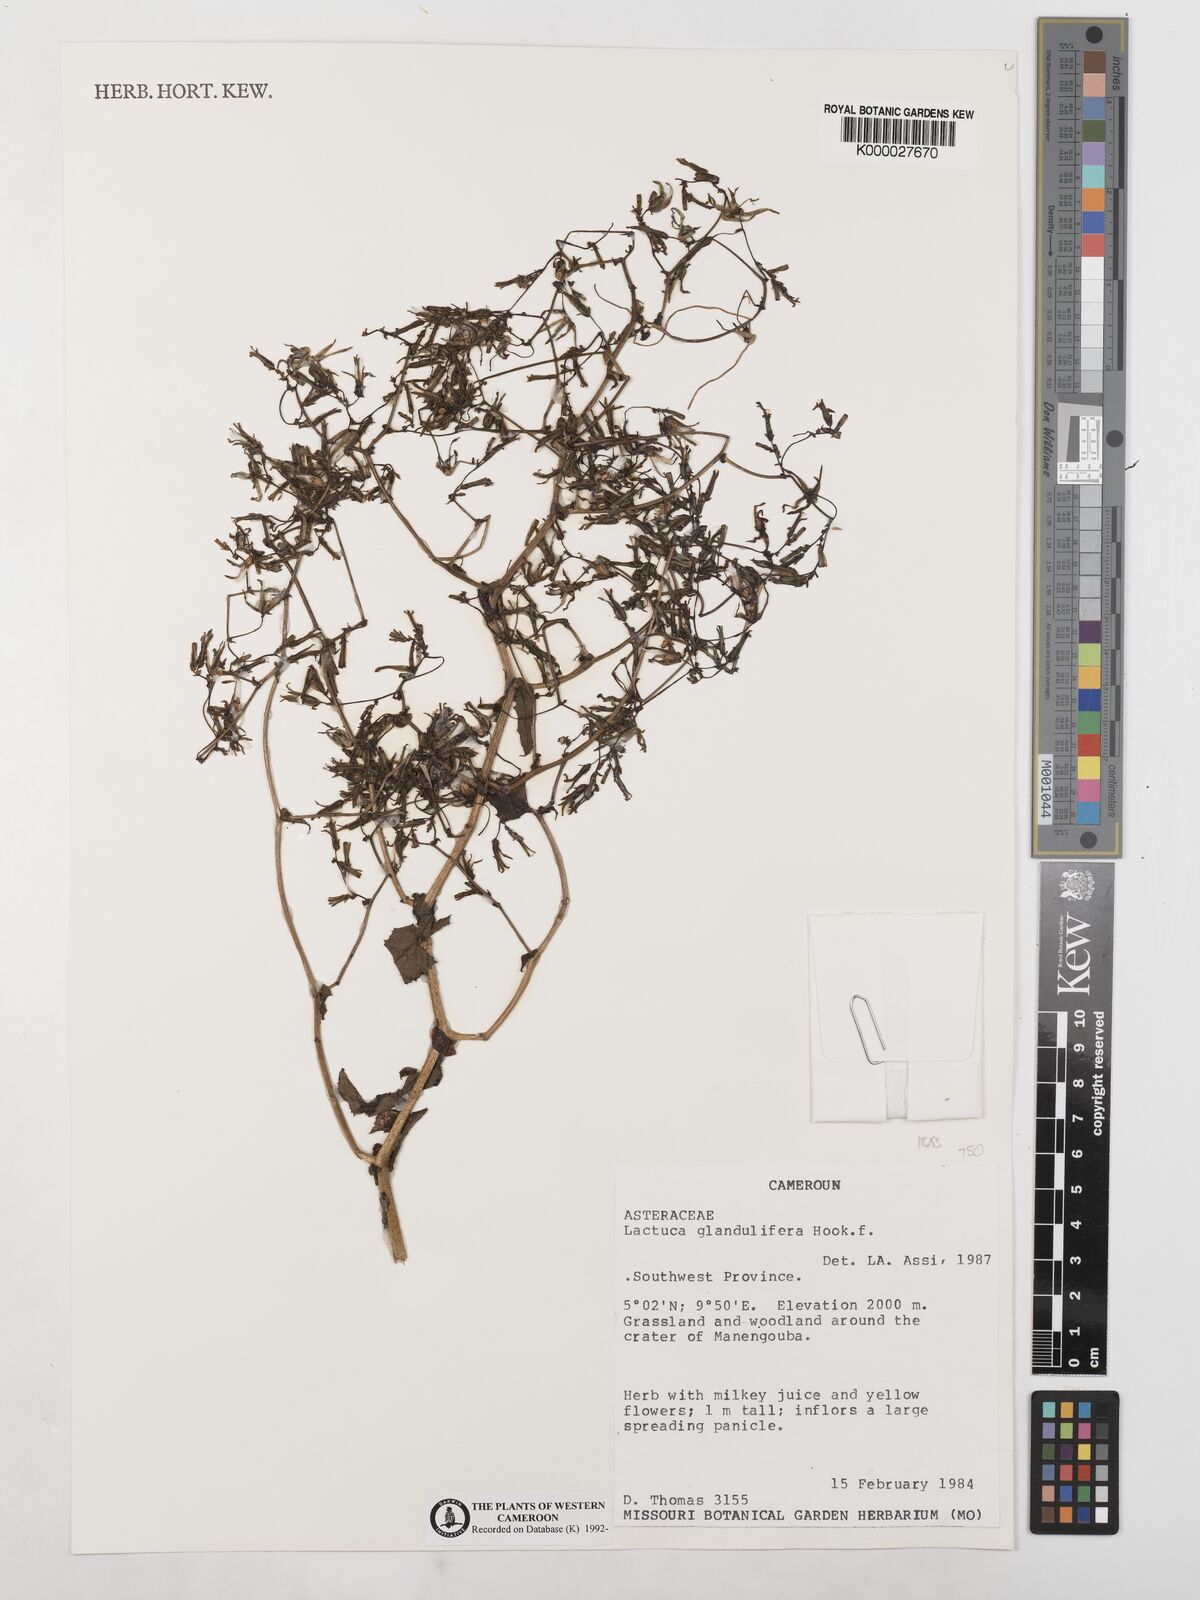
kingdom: Plantae
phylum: Tracheophyta
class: Magnoliopsida
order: Asterales
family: Asteraceae
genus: Lactuca
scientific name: Lactuca glandulifera
